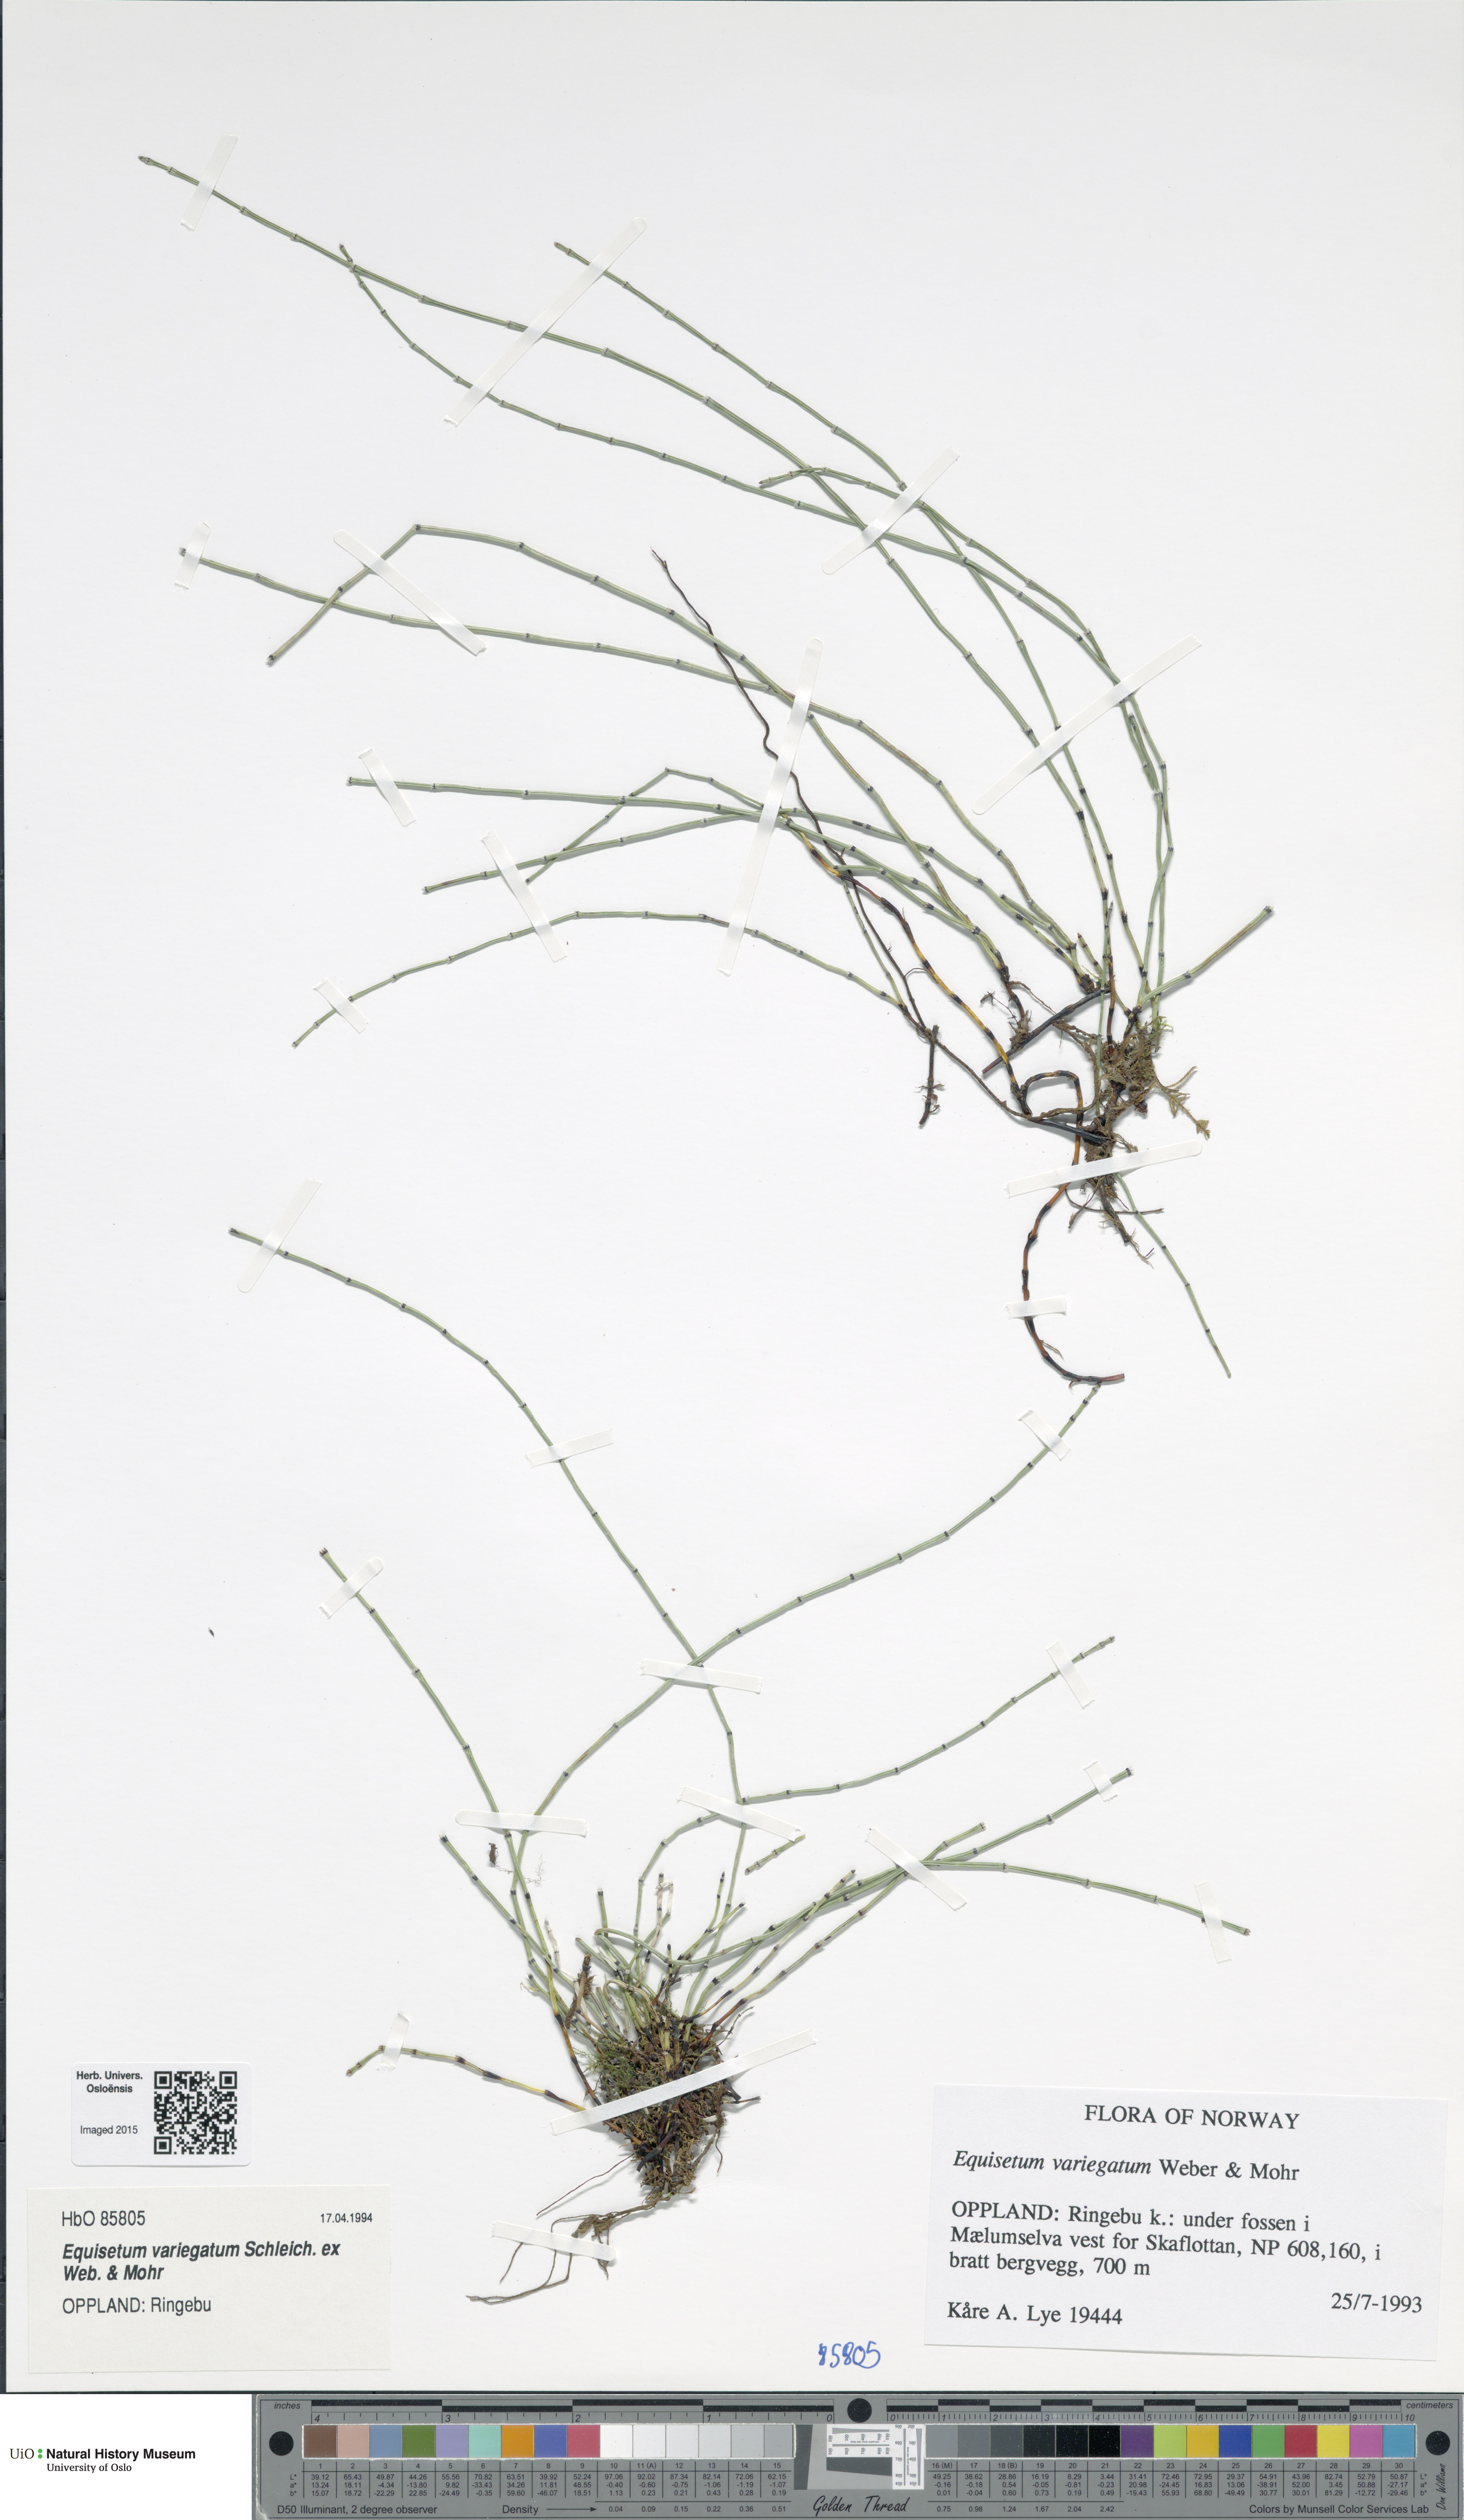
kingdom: Plantae
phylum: Tracheophyta
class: Polypodiopsida
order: Equisetales
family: Equisetaceae
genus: Equisetum
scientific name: Equisetum variegatum
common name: Variegated horsetail
